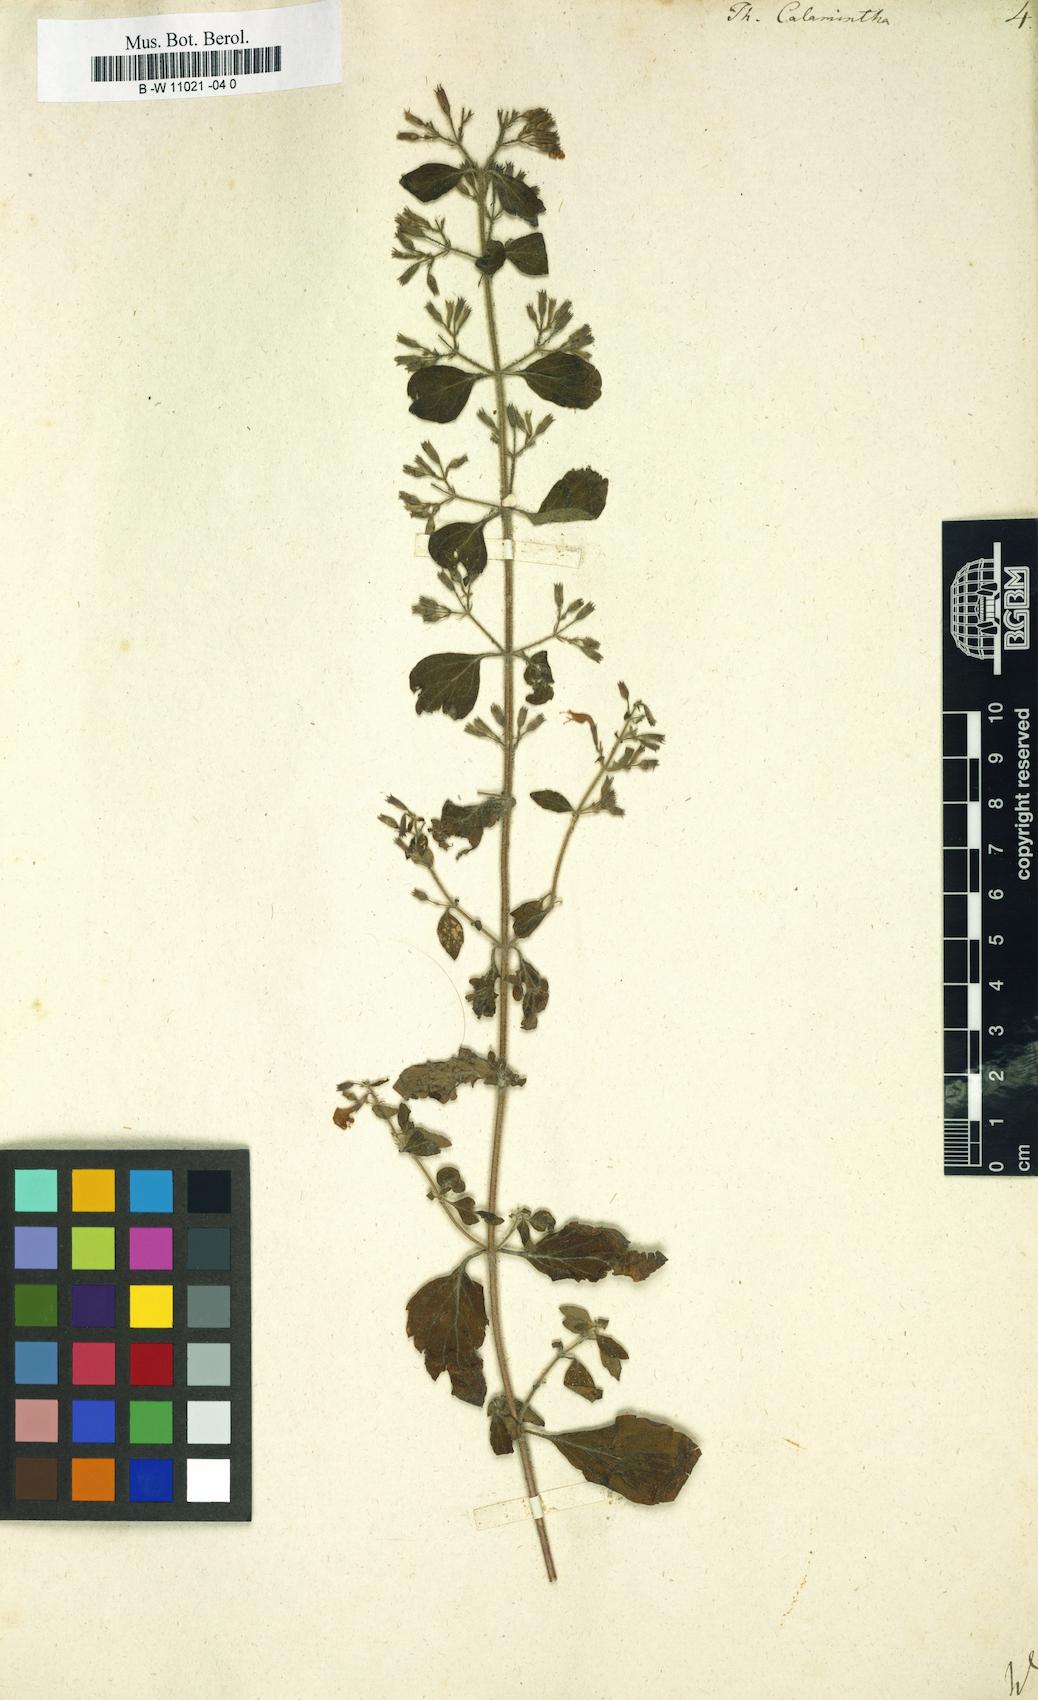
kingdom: Plantae
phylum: Tracheophyta
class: Magnoliopsida
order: Lamiales
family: Lamiaceae
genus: Clinopodium
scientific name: Clinopodium nepeta
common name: Lesser calamint
